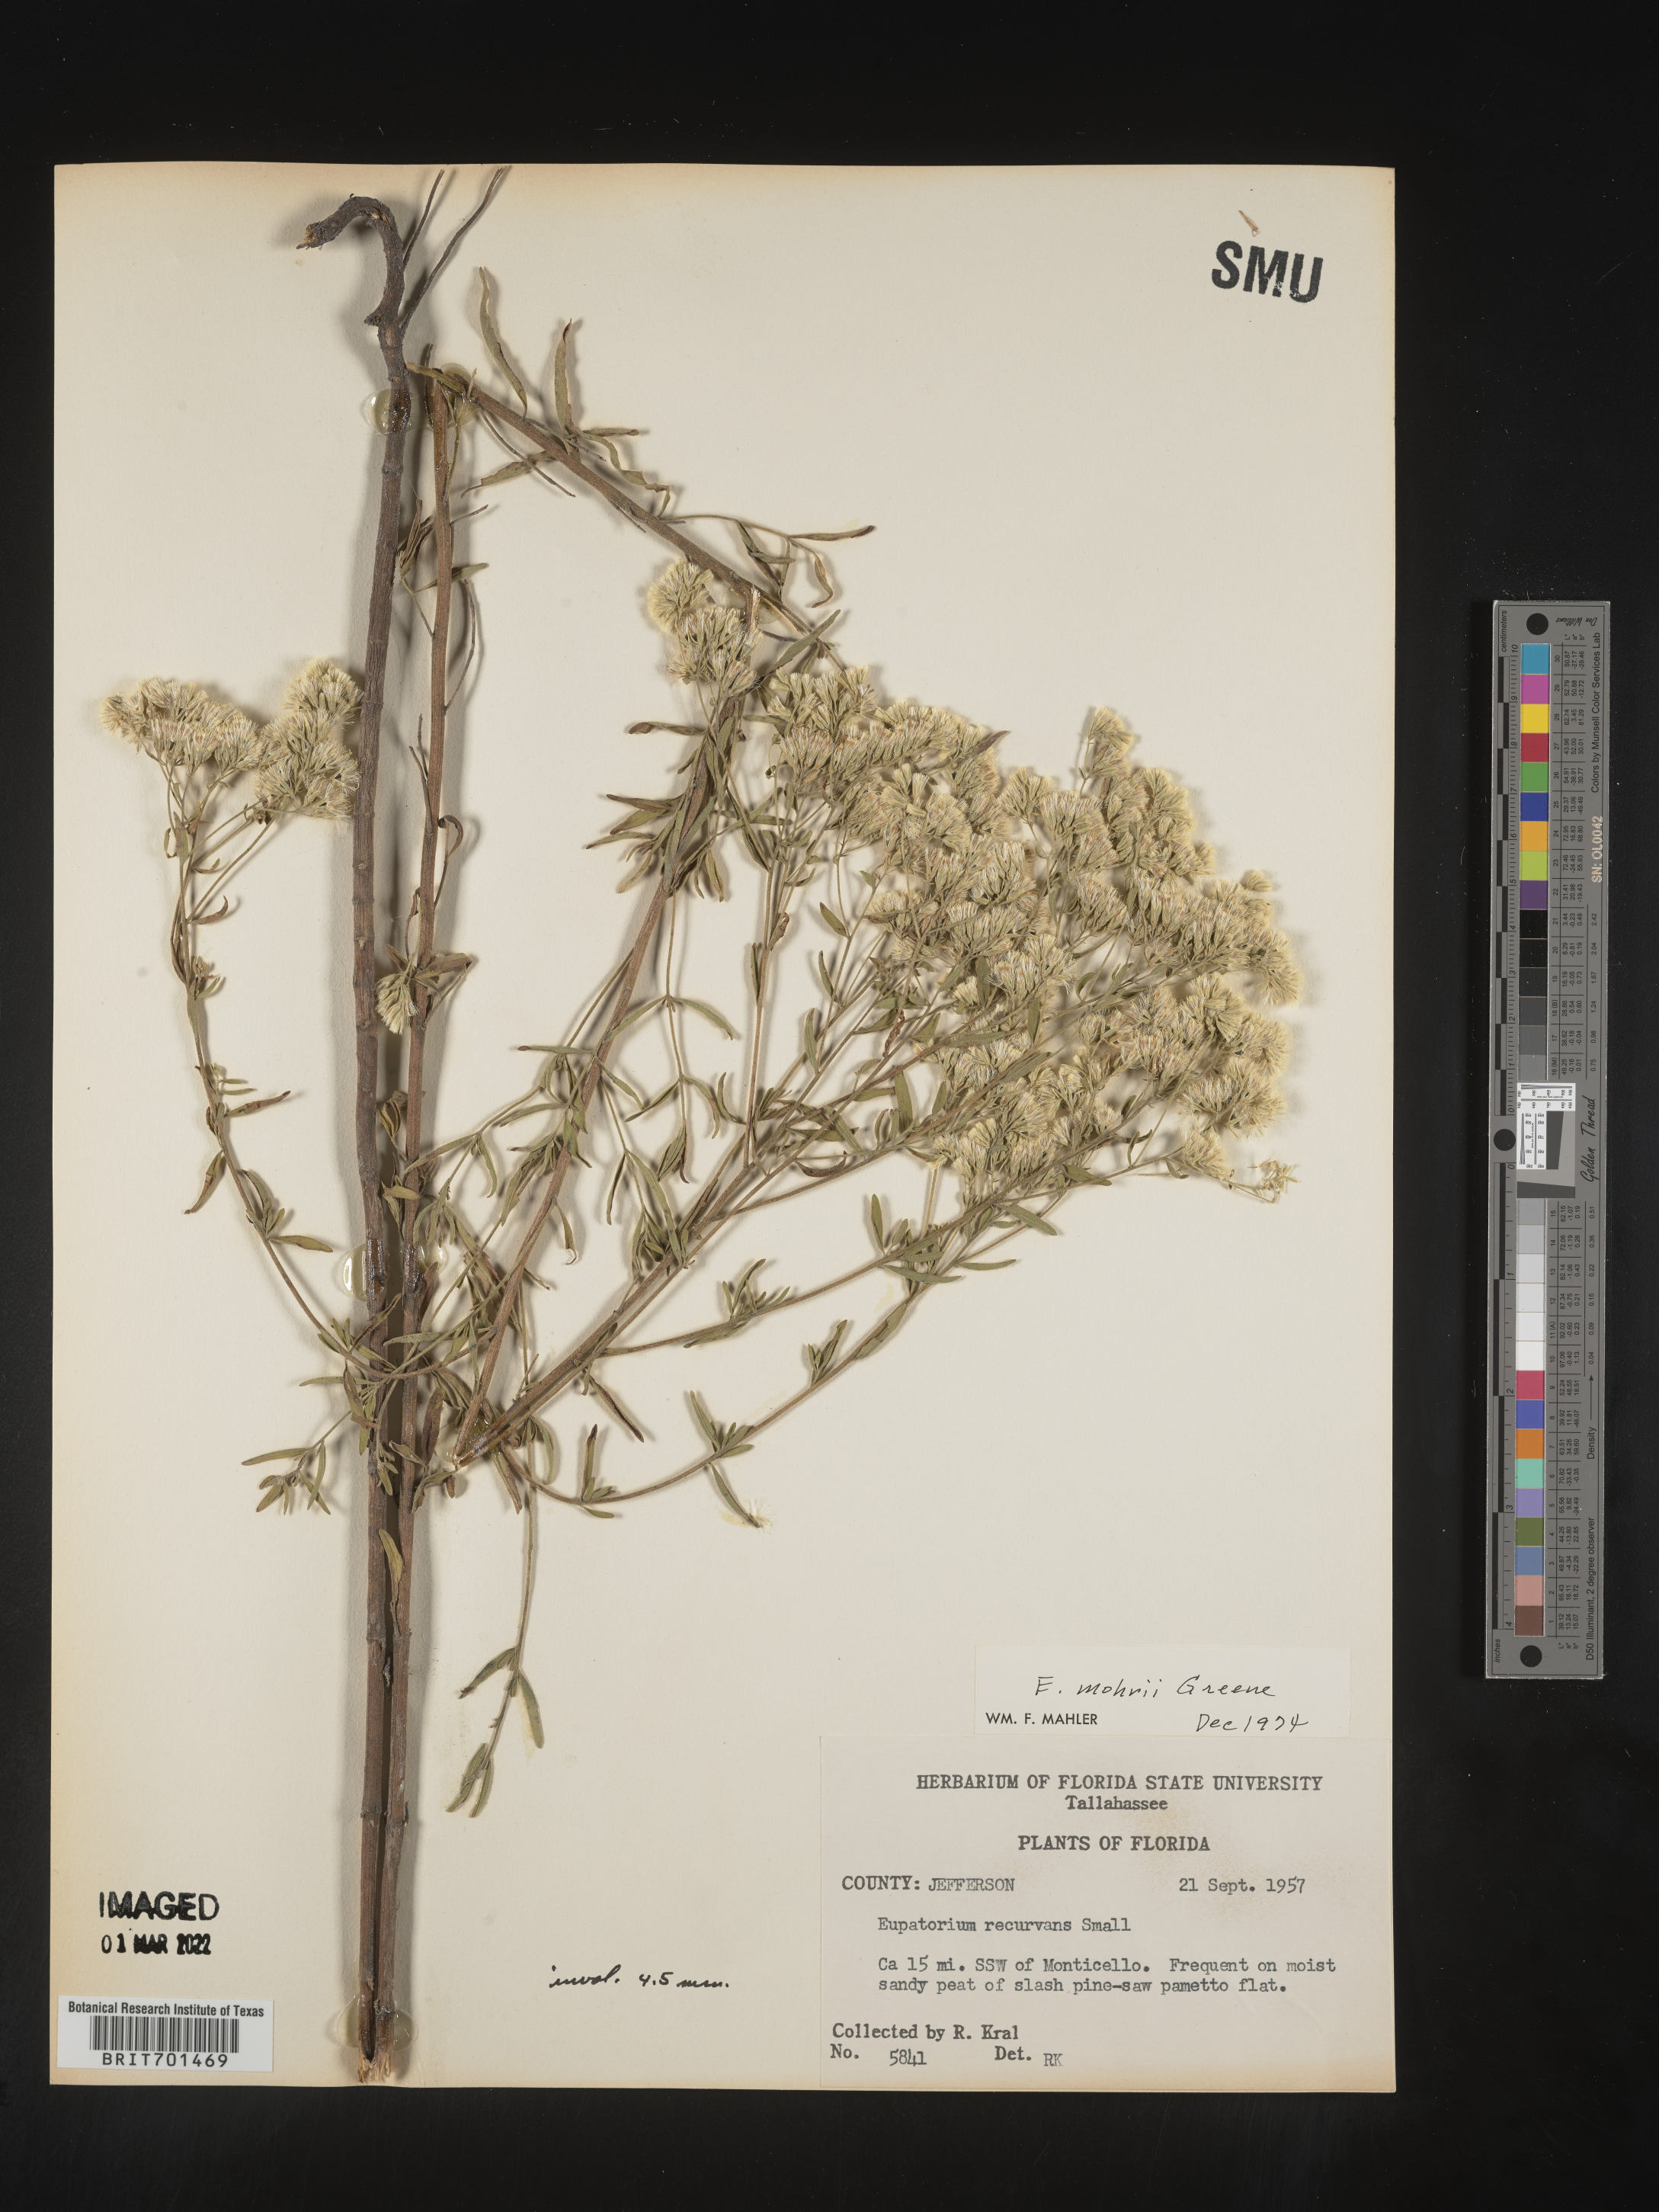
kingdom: Plantae
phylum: Tracheophyta
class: Magnoliopsida
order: Asterales
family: Asteraceae
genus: Eupatorium
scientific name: Eupatorium mohrii
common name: Mohr's thoroughwort
